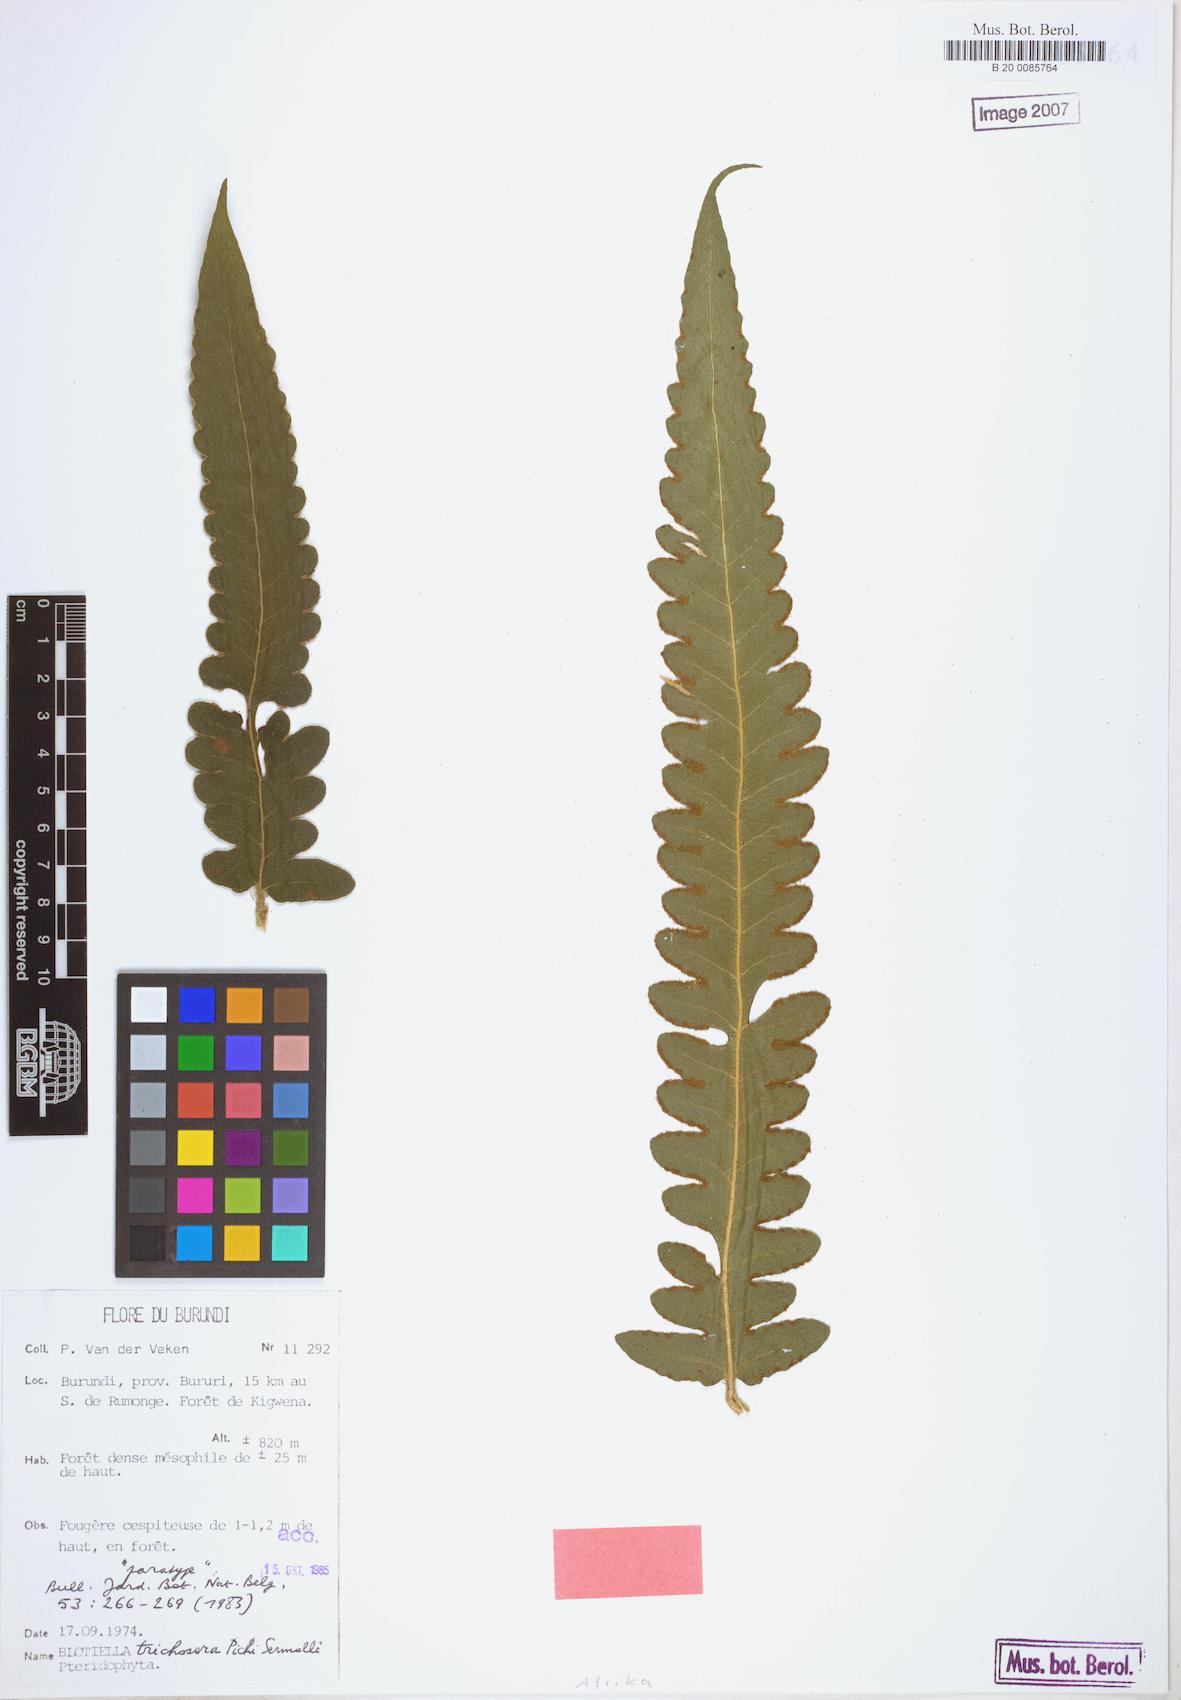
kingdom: Plantae
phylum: Tracheophyta
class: Polypodiopsida
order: Polypodiales
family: Dennstaedtiaceae
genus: Blotiella
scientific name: Blotiella trichosora
